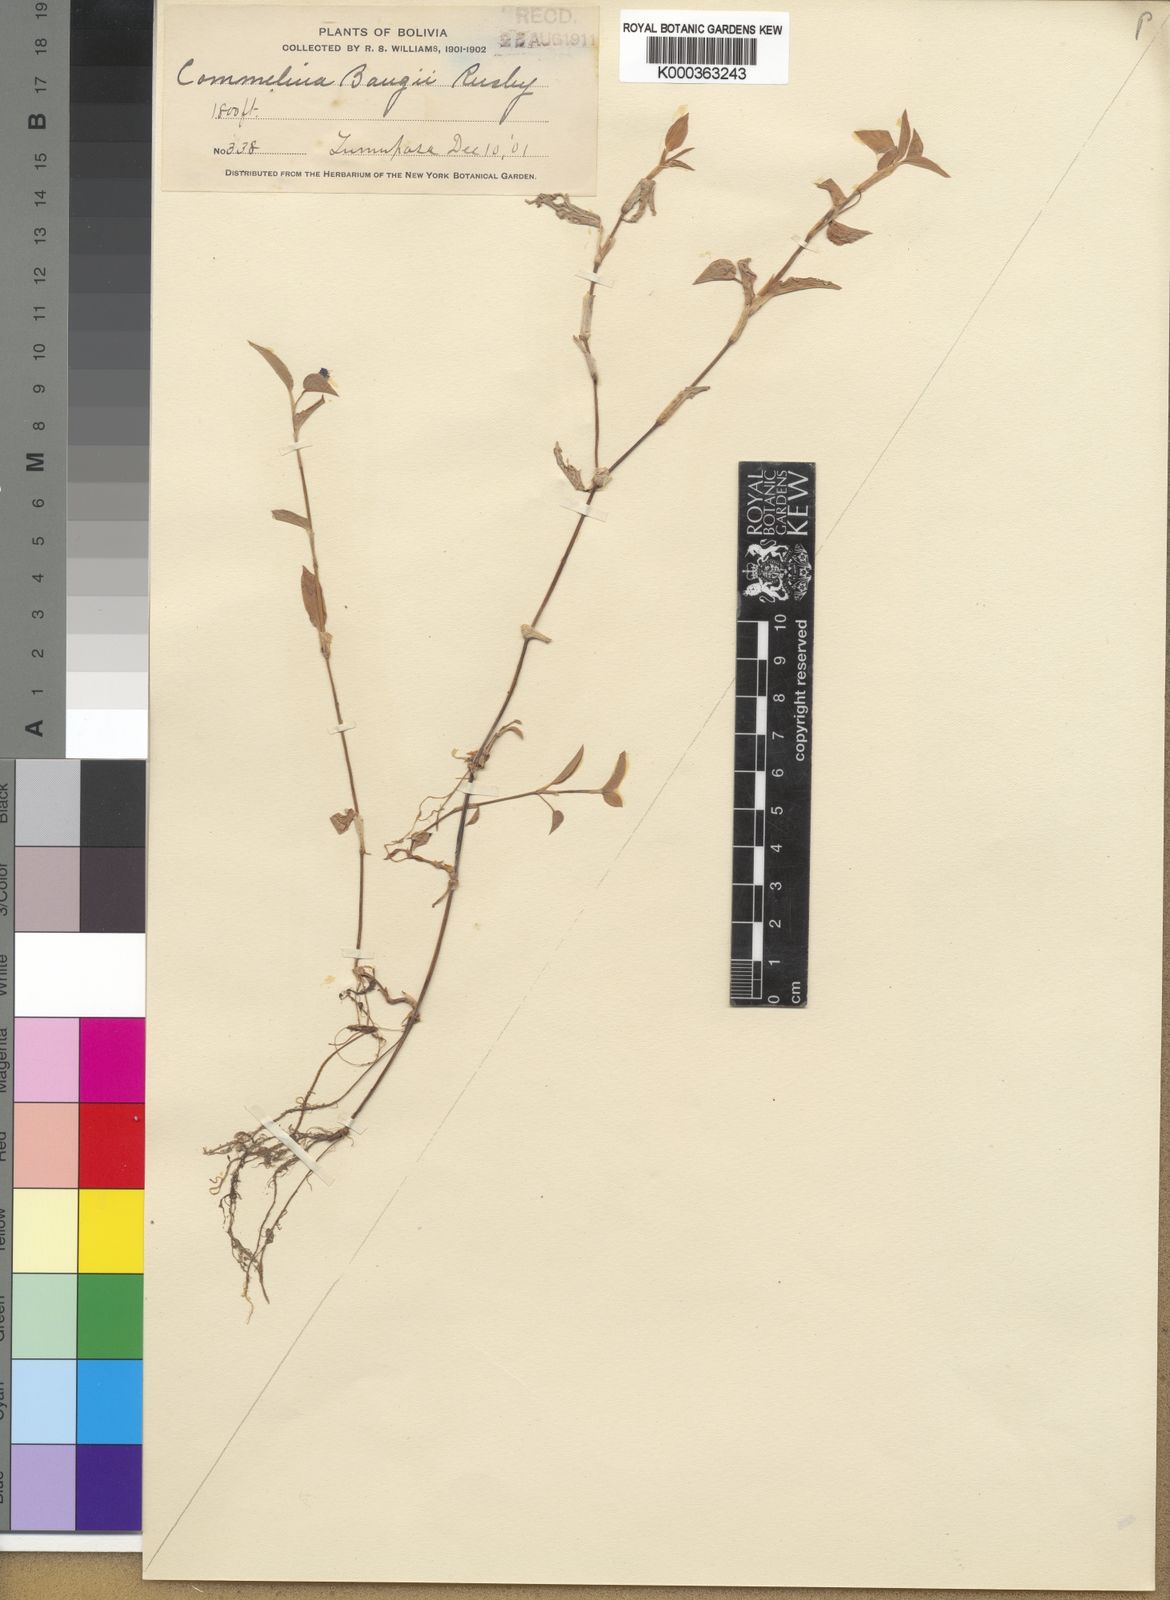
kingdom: Plantae
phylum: Tracheophyta
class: Liliopsida
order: Commelinales
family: Commelinaceae
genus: Commelina
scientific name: Commelina diffusa
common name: Climbing dayflower
